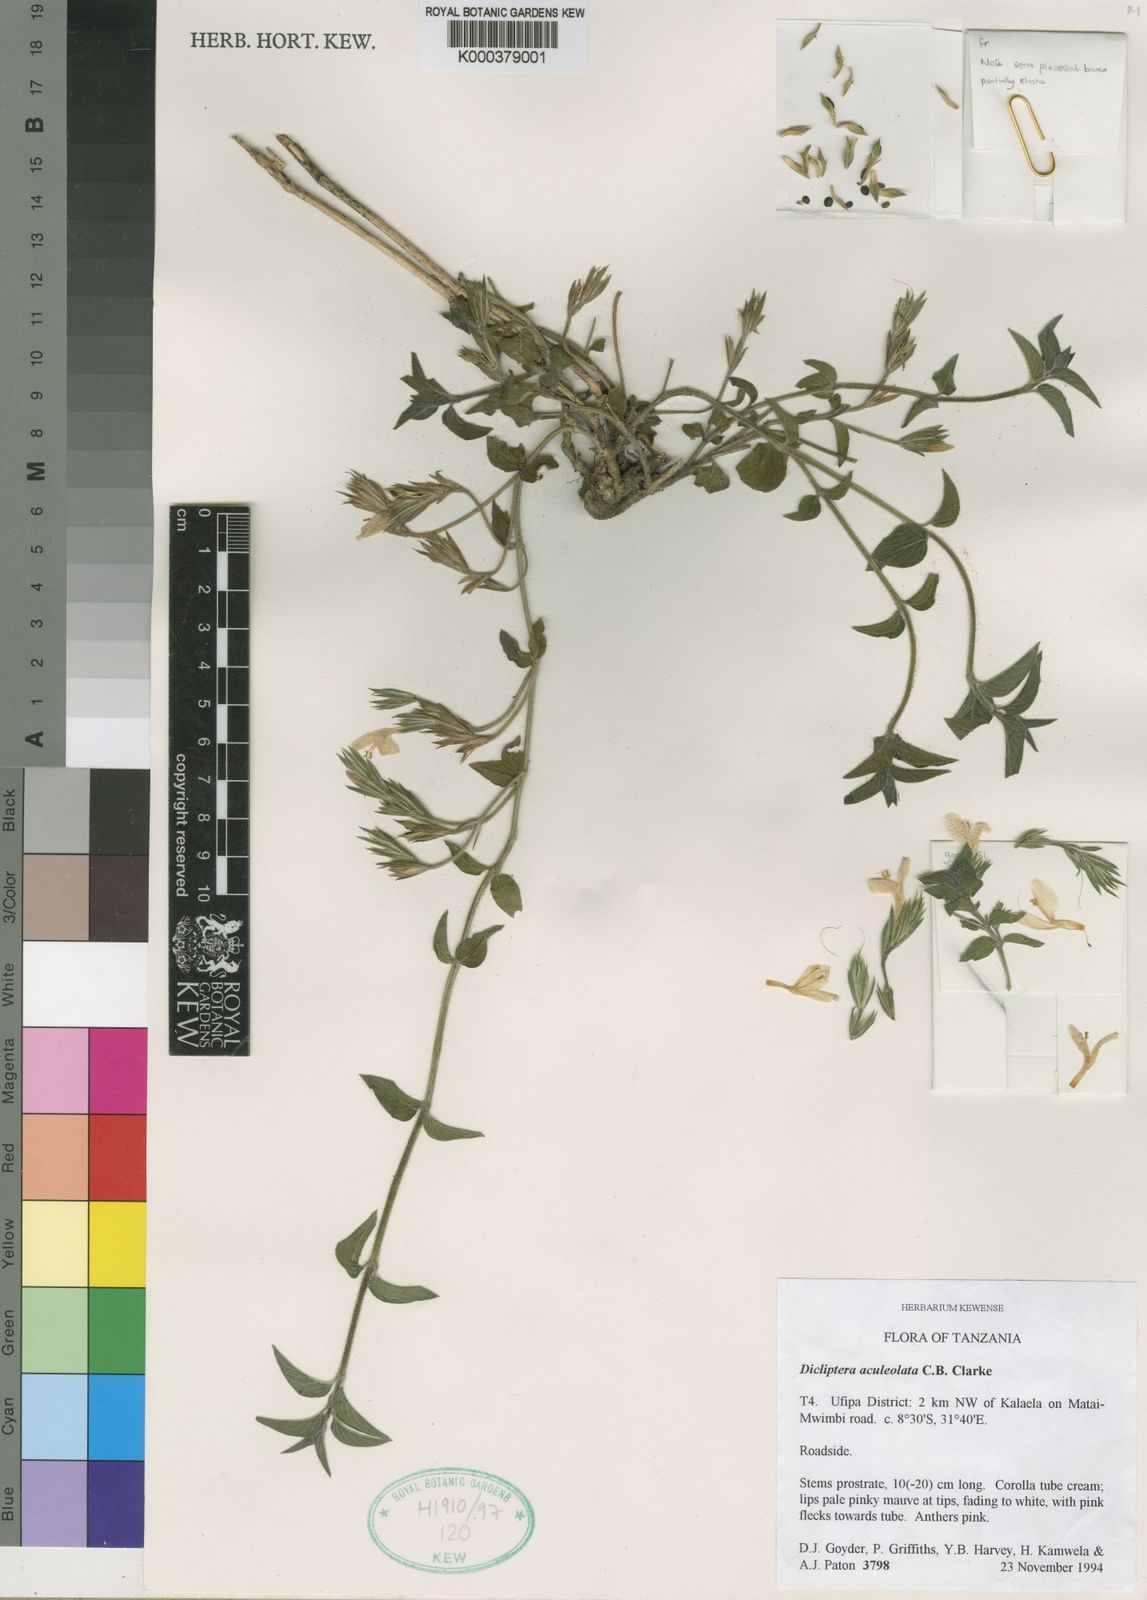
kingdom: Plantae
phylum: Tracheophyta
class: Magnoliopsida
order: Lamiales
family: Acanthaceae
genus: Dicliptera
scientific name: Dicliptera brevispicata
